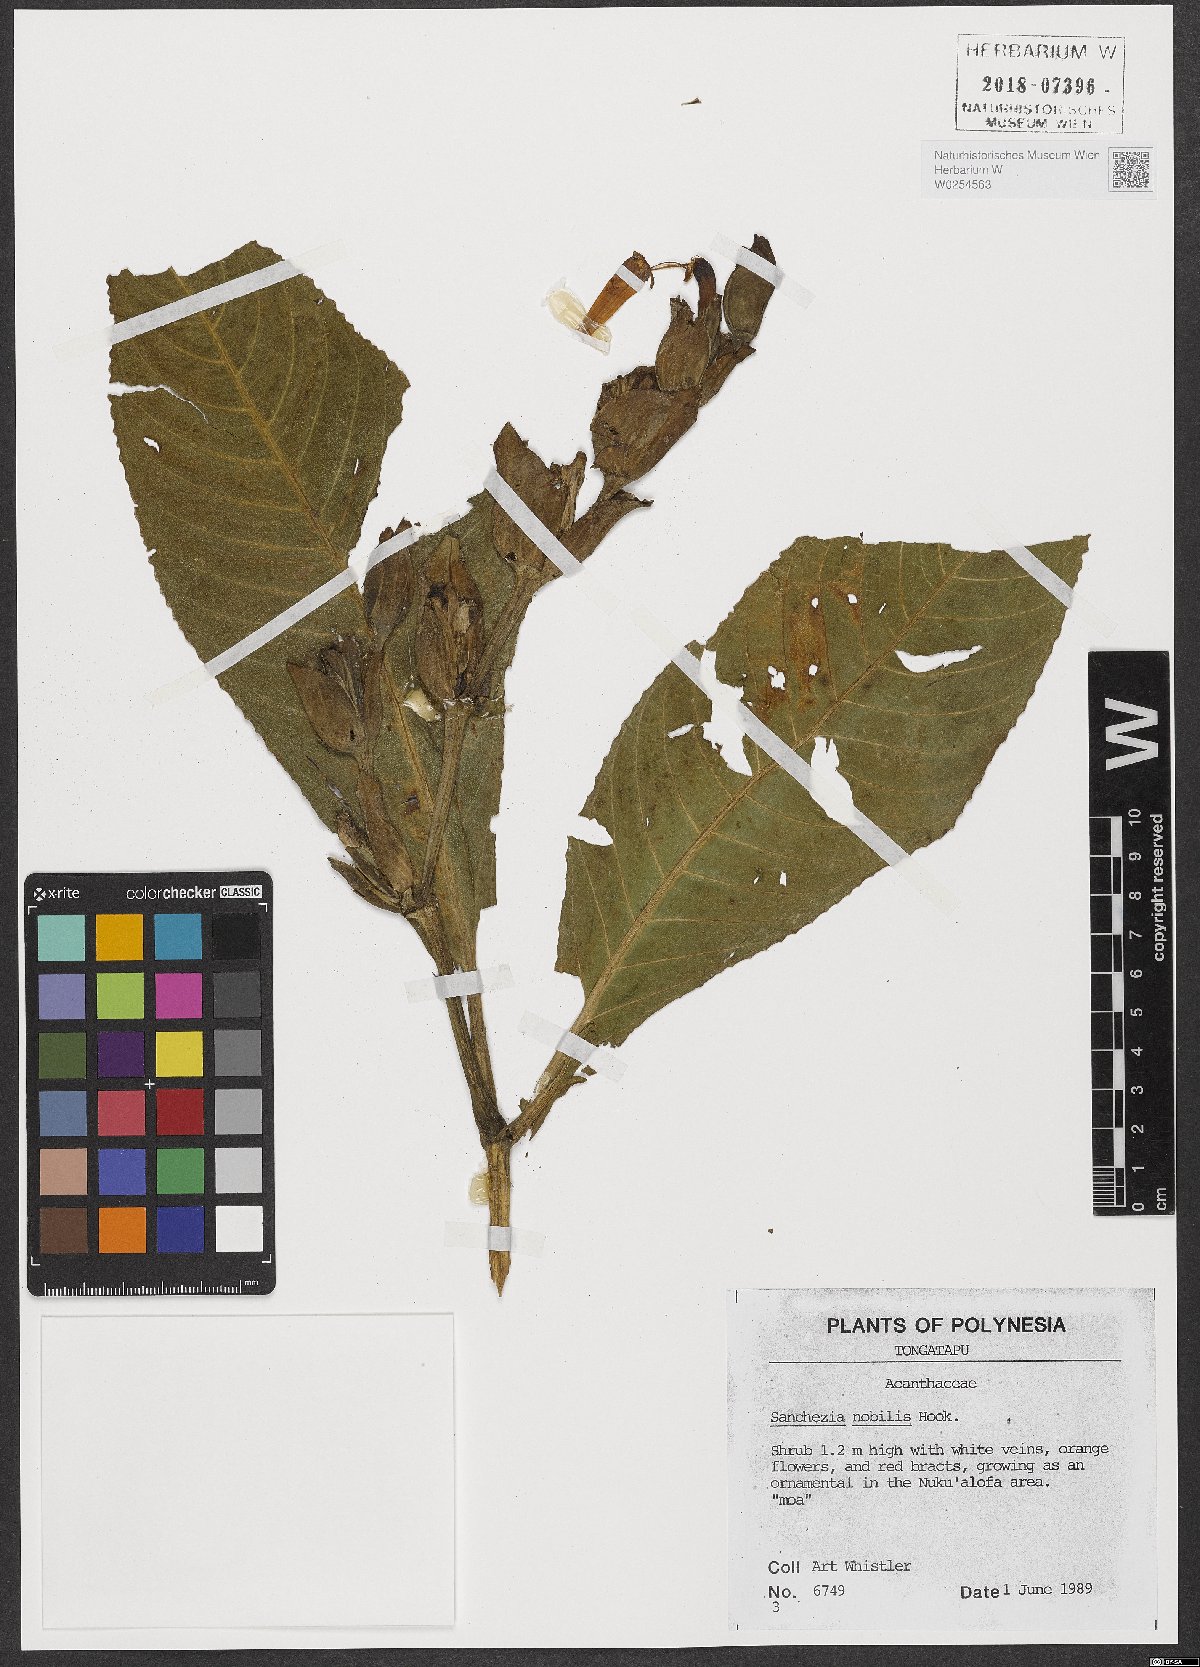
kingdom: Plantae
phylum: Tracheophyta
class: Magnoliopsida
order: Lamiales
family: Acanthaceae
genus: Sanchezia
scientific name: Sanchezia oblonga
